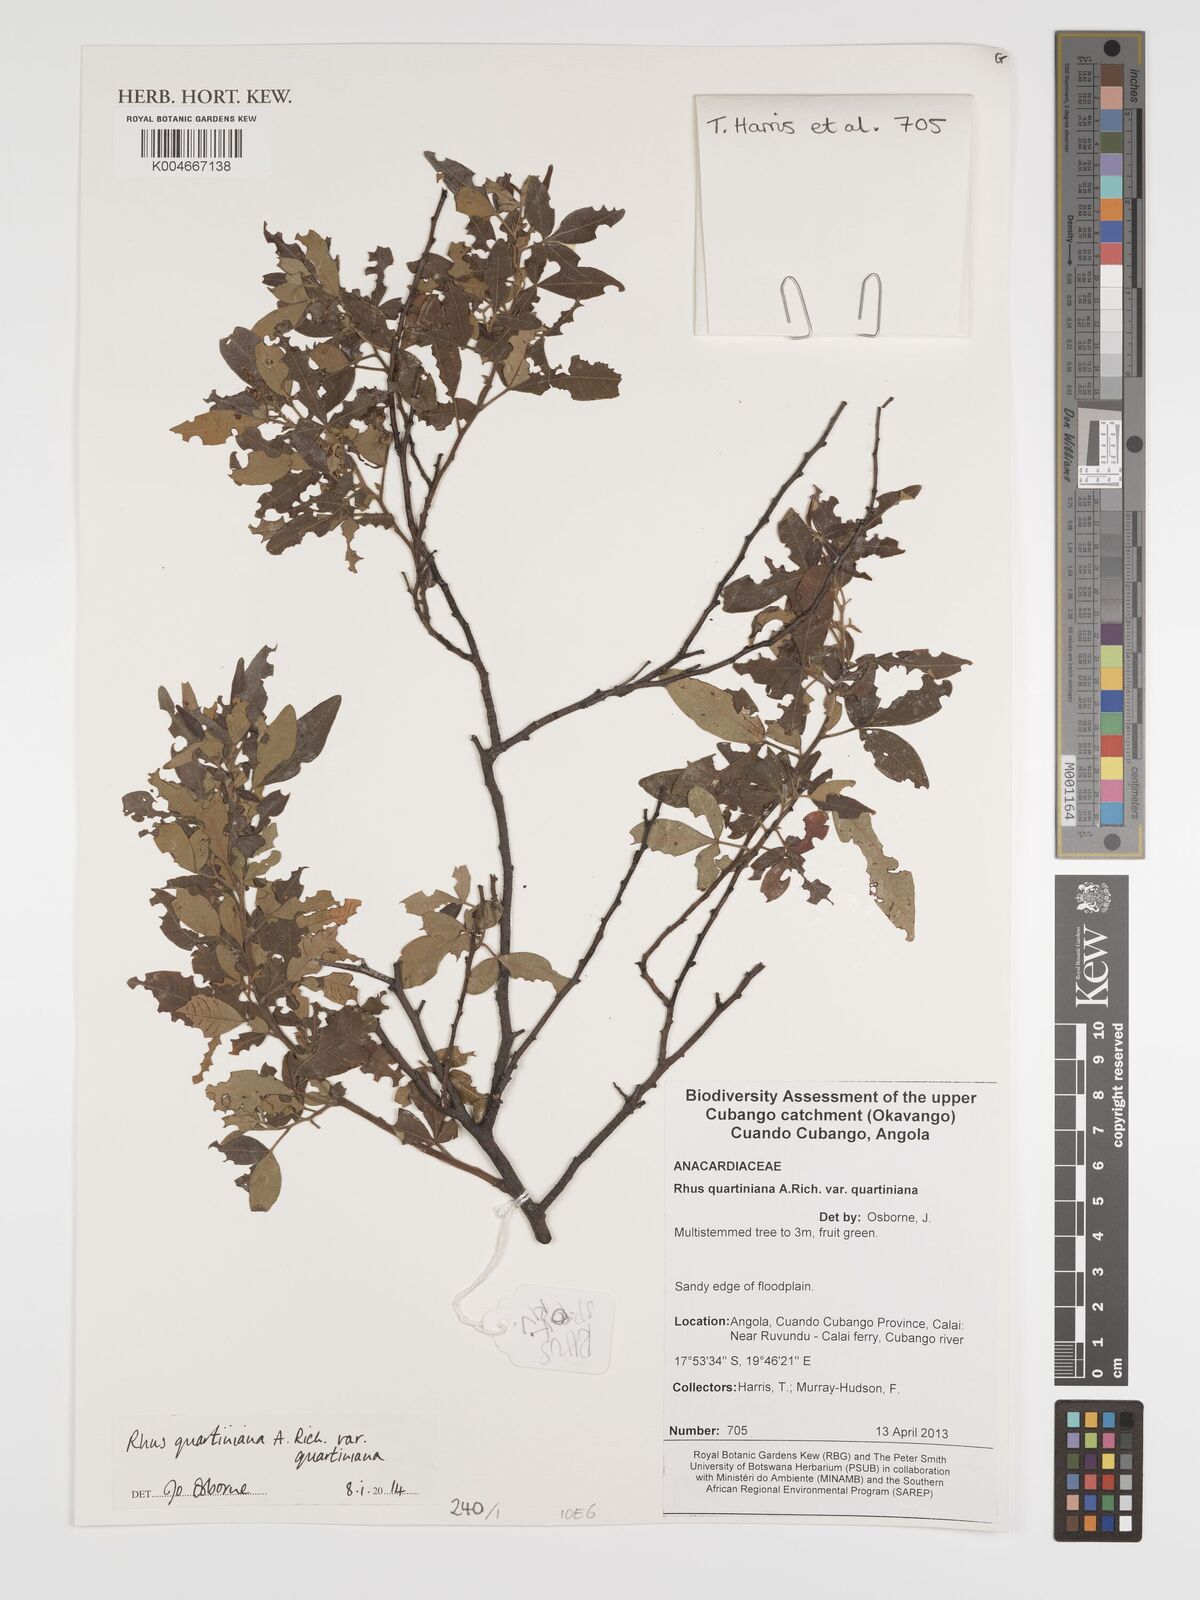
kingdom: Plantae
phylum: Tracheophyta
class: Magnoliopsida
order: Sapindales
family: Anacardiaceae
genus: Searsia
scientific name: Searsia quartiniana
